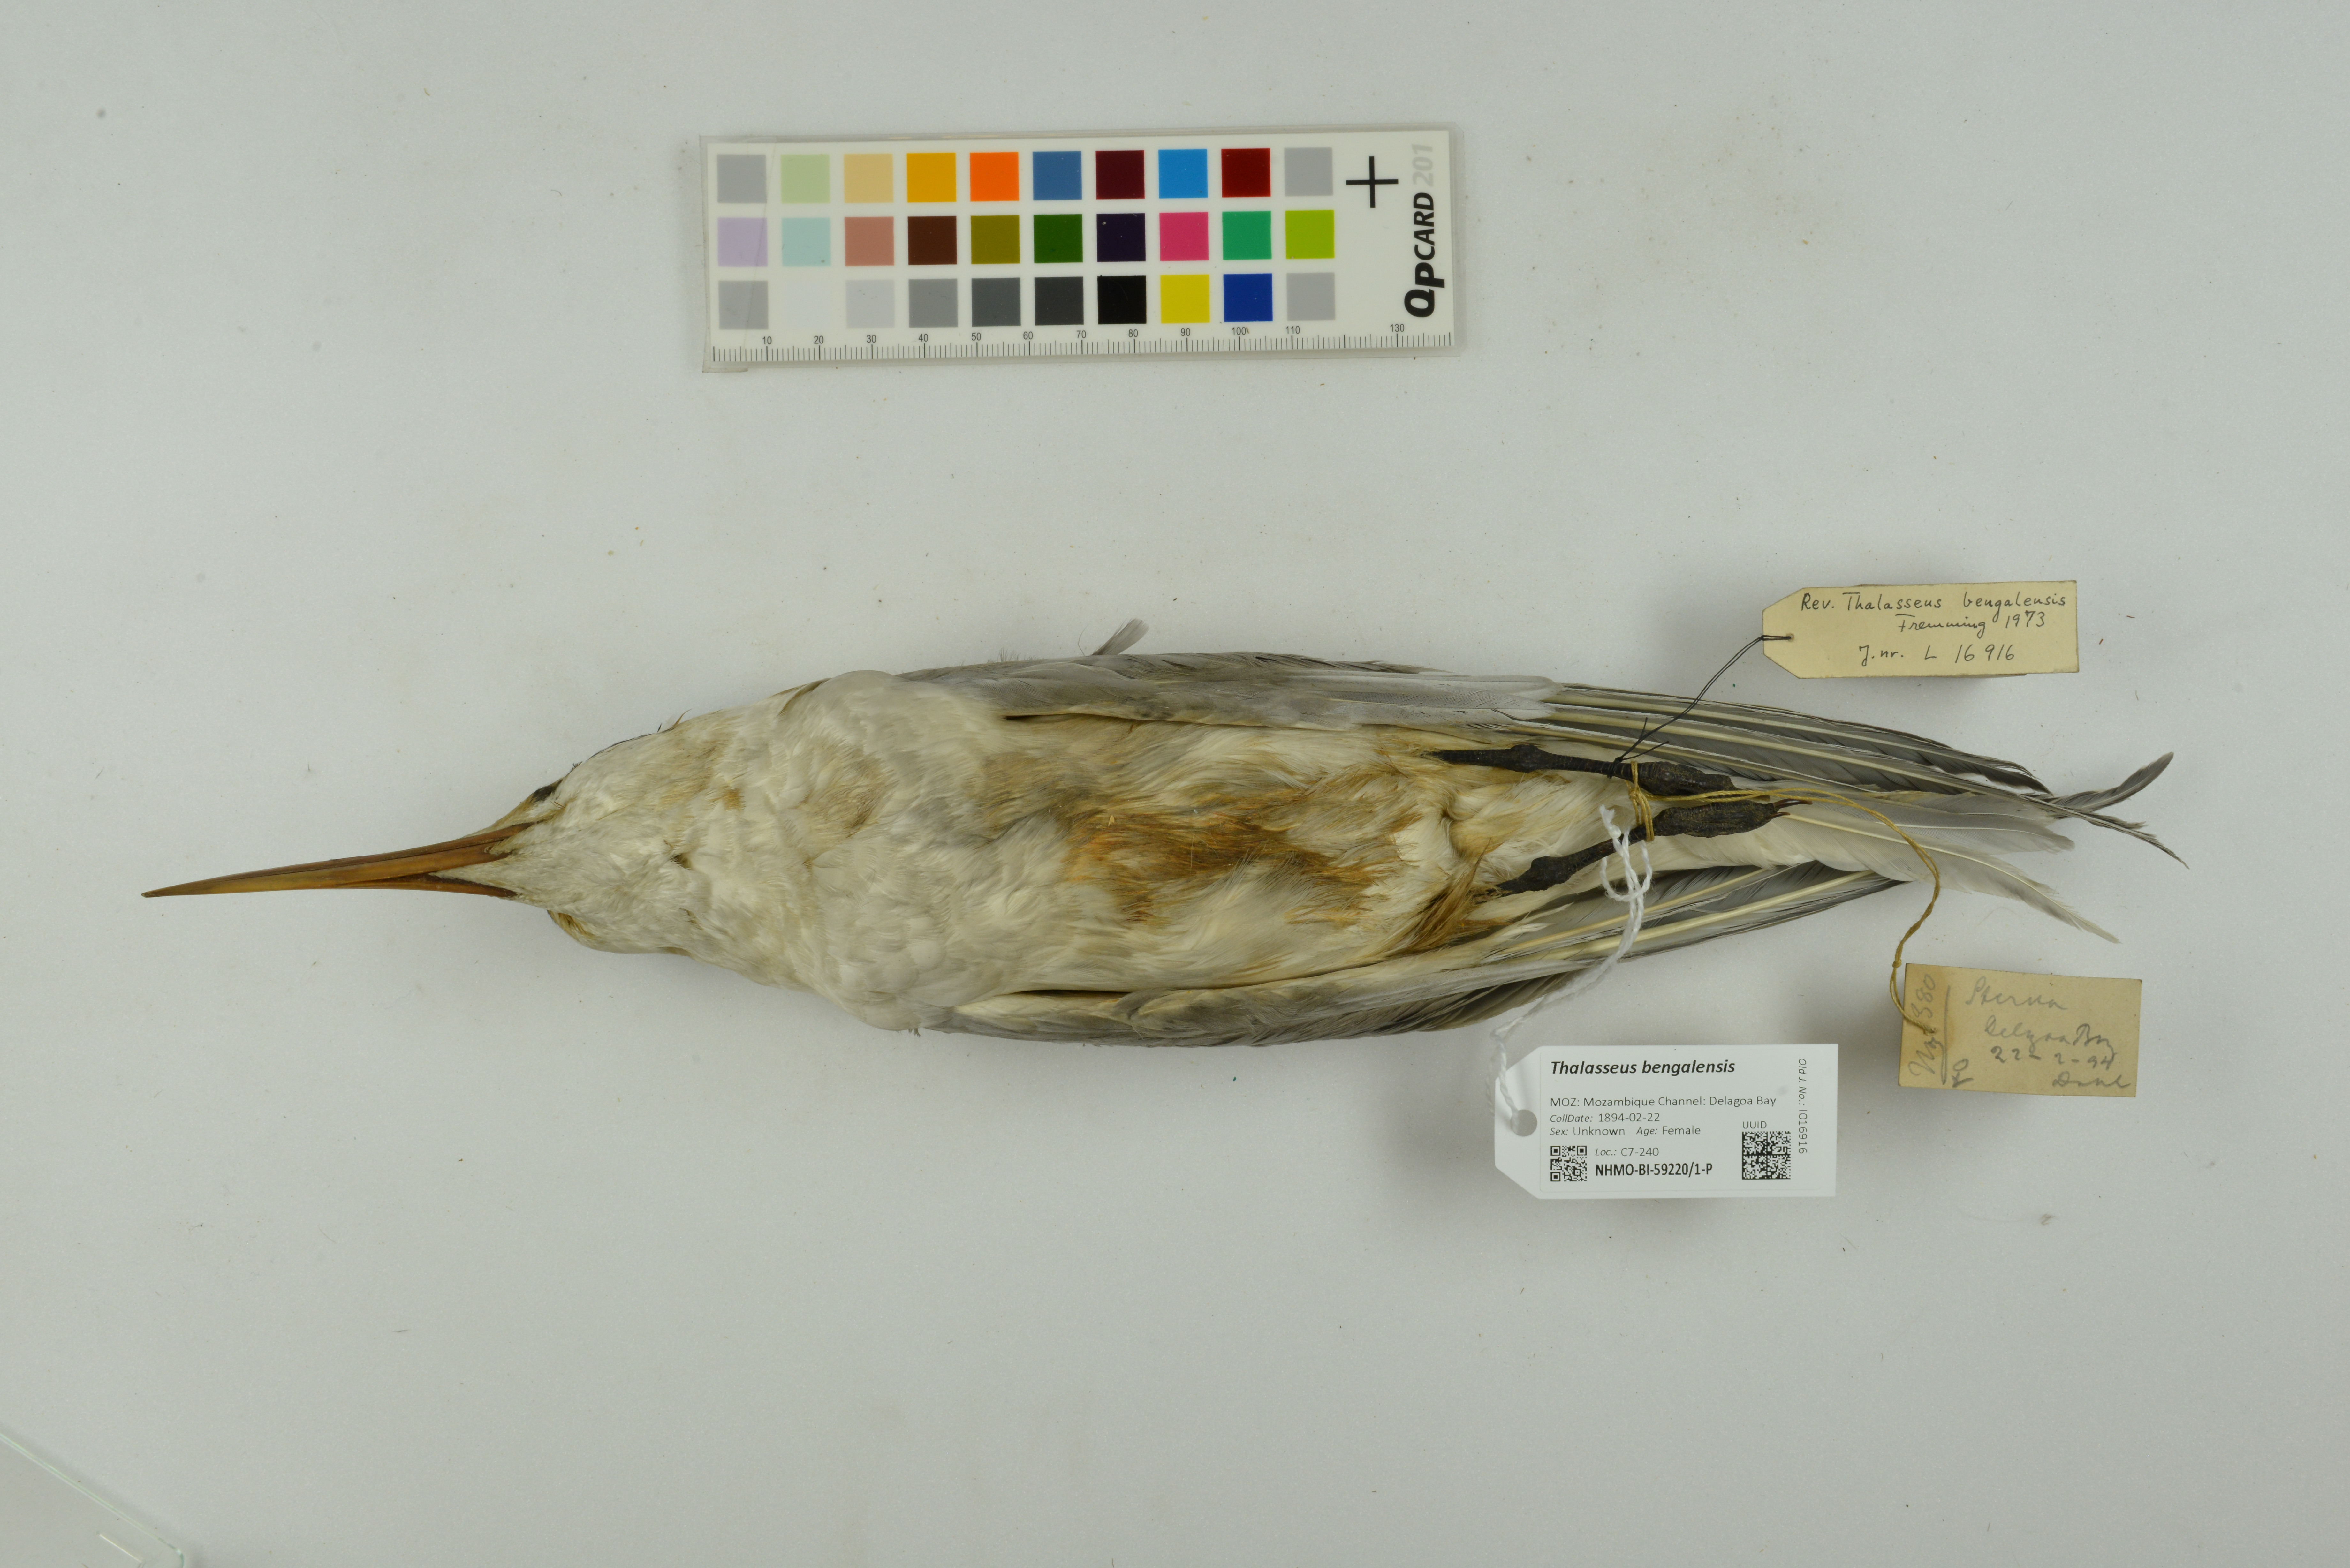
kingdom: Animalia
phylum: Chordata
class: Aves
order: Charadriiformes
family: Laridae
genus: Thalasseus
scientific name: Thalasseus bengalensis
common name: Lesser crested tern
